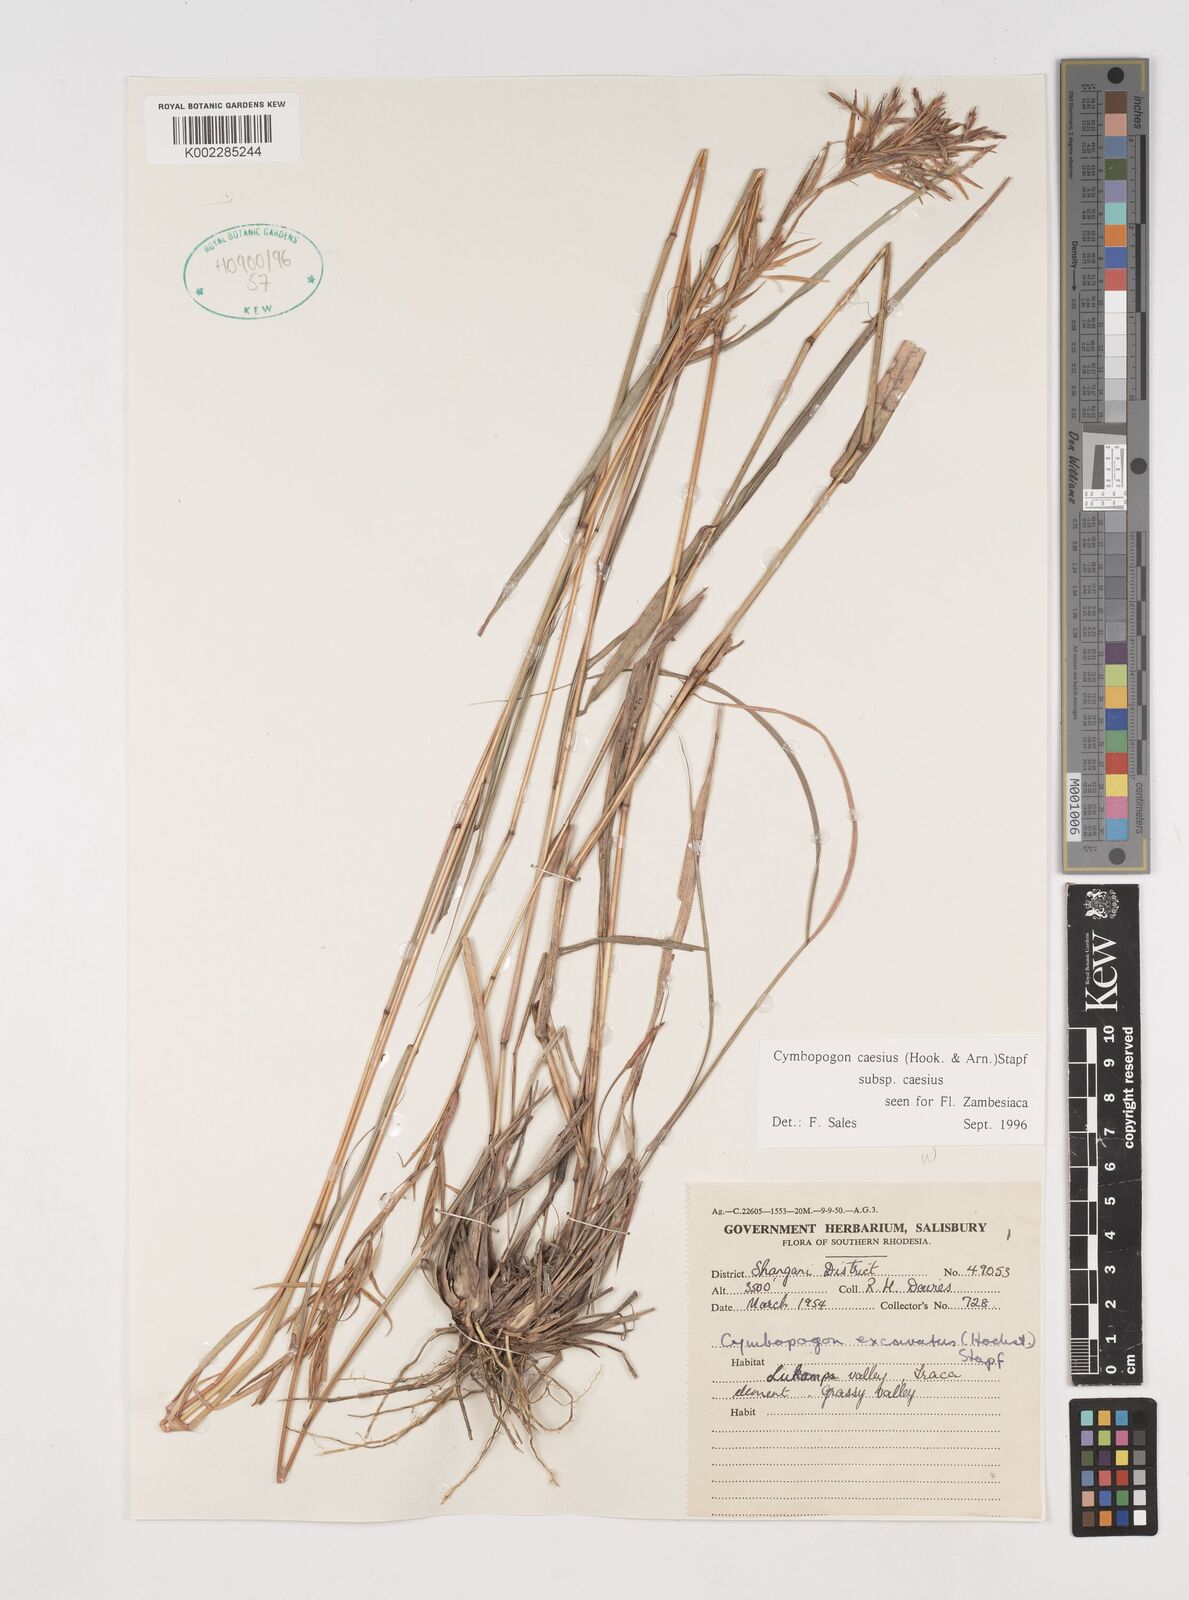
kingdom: Plantae
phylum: Tracheophyta
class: Liliopsida
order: Poales
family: Poaceae
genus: Cymbopogon
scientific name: Cymbopogon caesius
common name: Kachi grass
